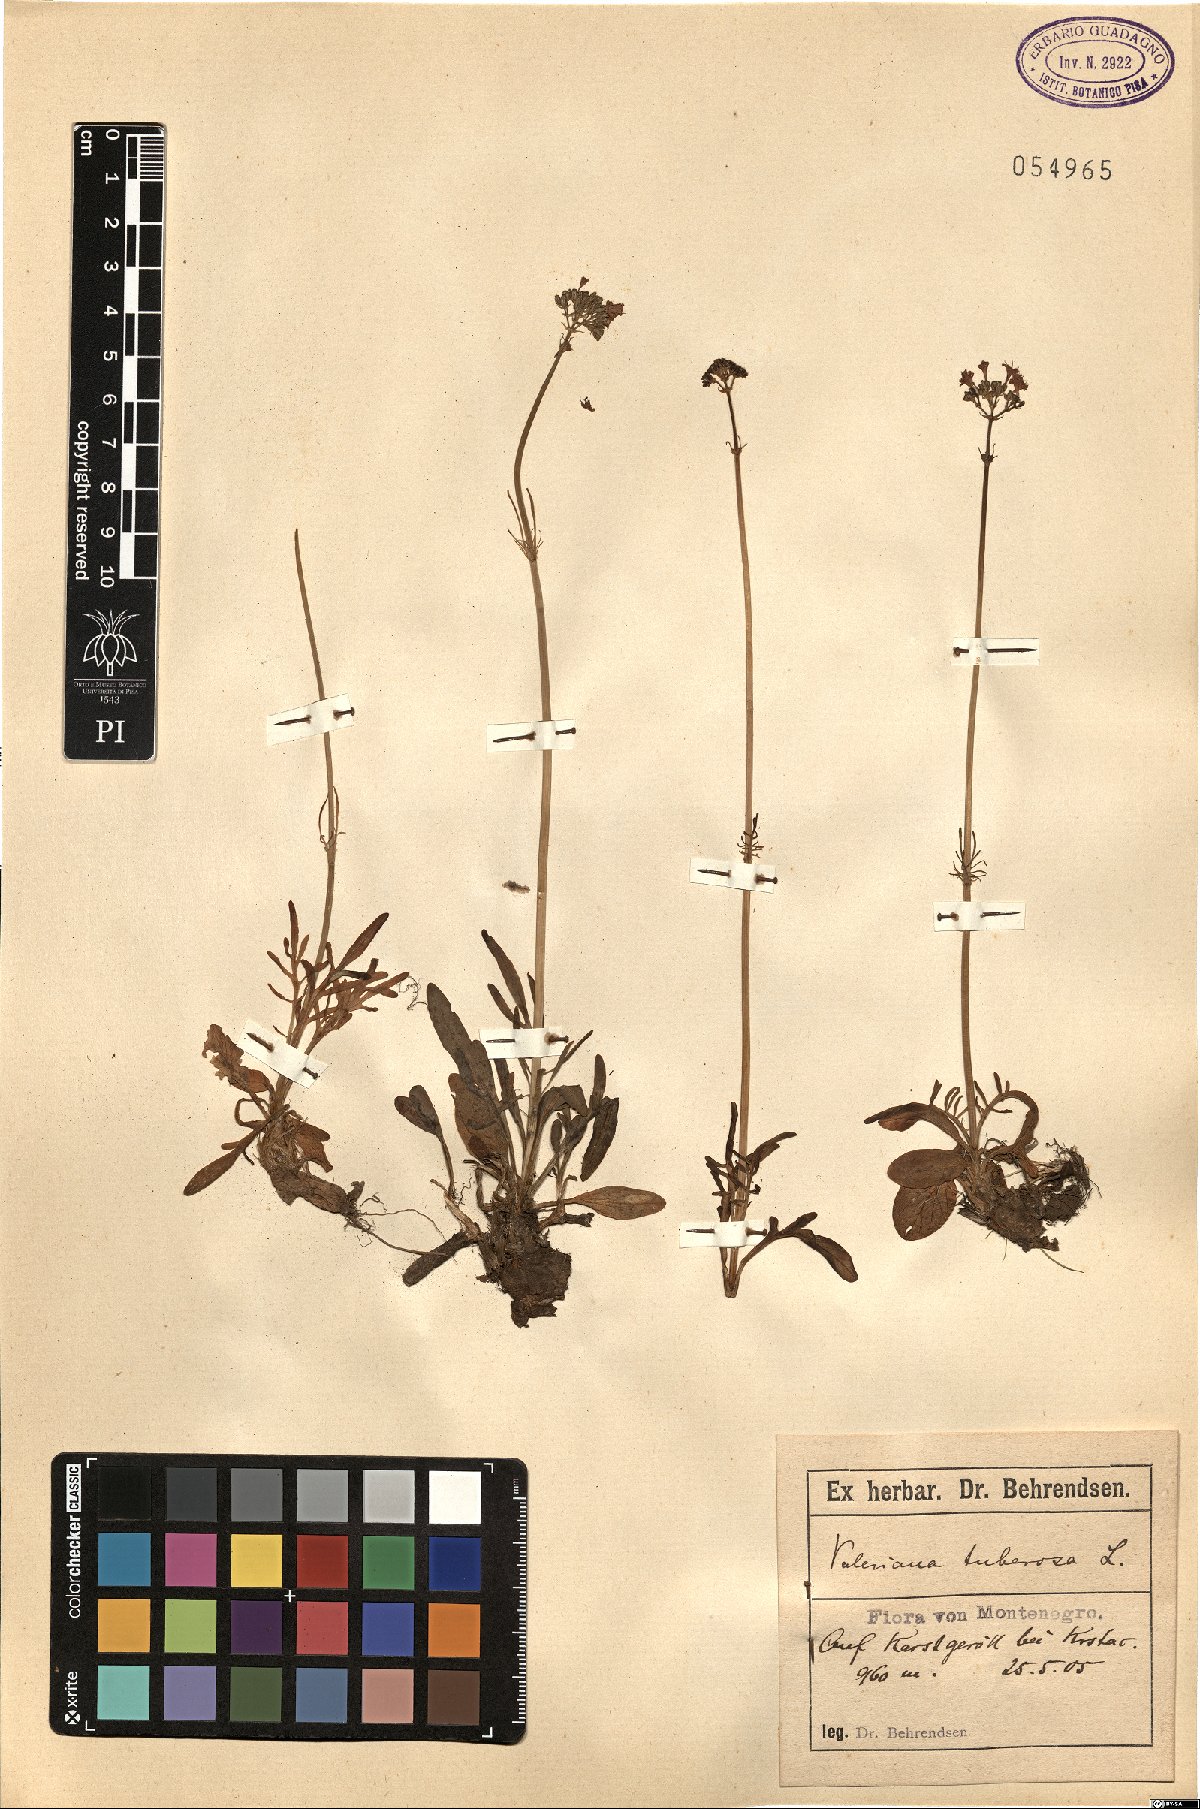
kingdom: Plantae
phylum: Tracheophyta
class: Magnoliopsida
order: Dipsacales
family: Caprifoliaceae
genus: Valeriana
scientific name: Valeriana tuberosa
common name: Tuberous valerian
